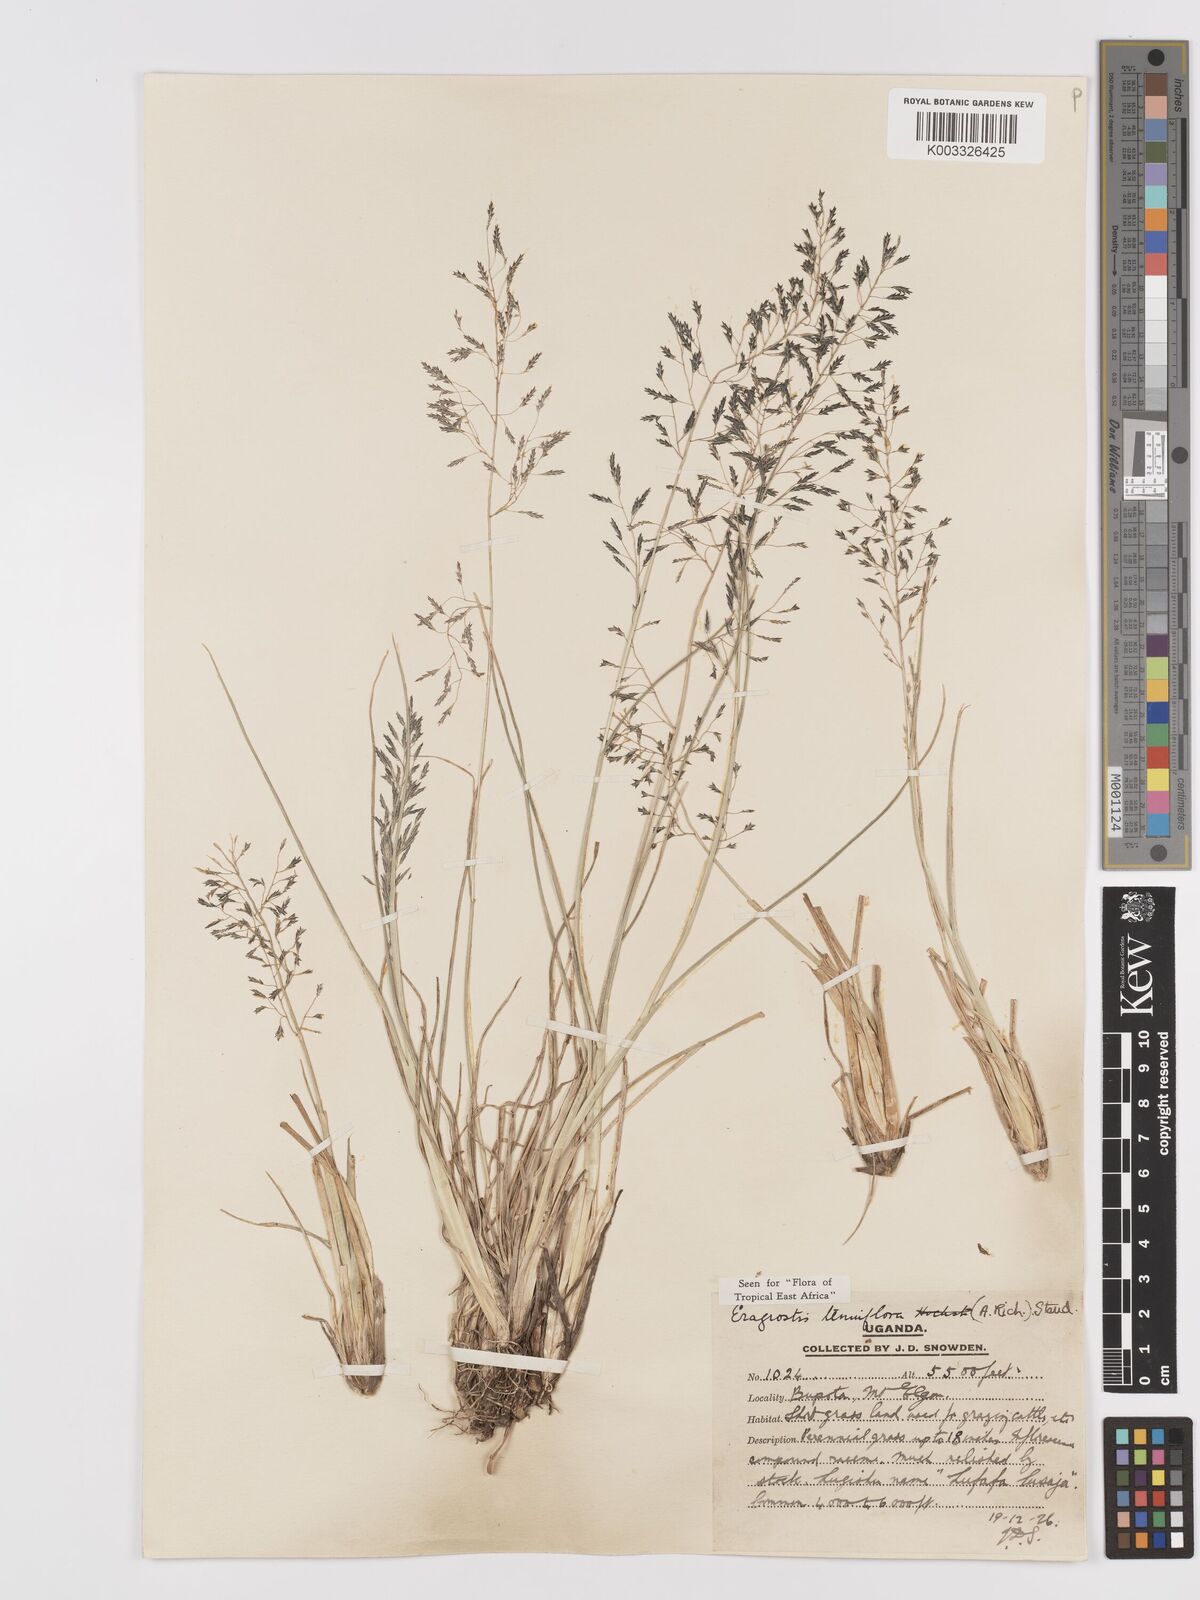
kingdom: Plantae
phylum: Tracheophyta
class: Liliopsida
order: Poales
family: Poaceae
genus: Eragrostis
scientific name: Eragrostis tenuifolia
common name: Elastic grass
